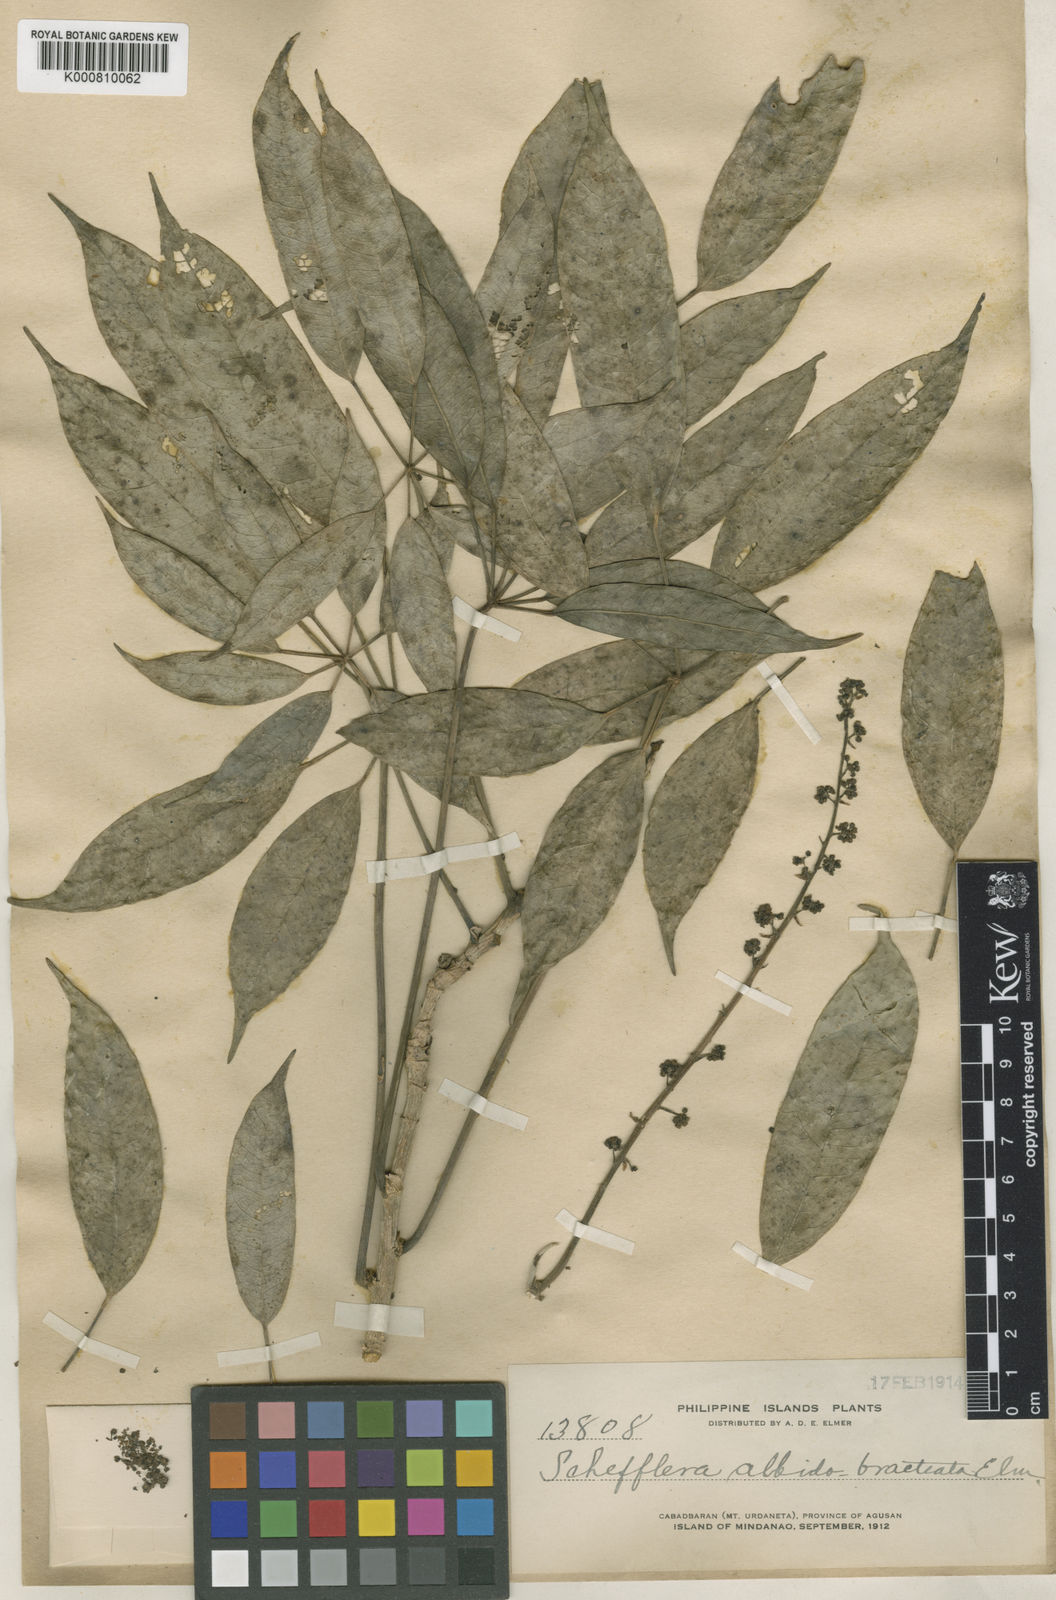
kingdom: Plantae
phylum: Tracheophyta
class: Magnoliopsida
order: Apiales
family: Araliaceae
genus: Heptapleurum
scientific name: Heptapleurum albidobracteatum
